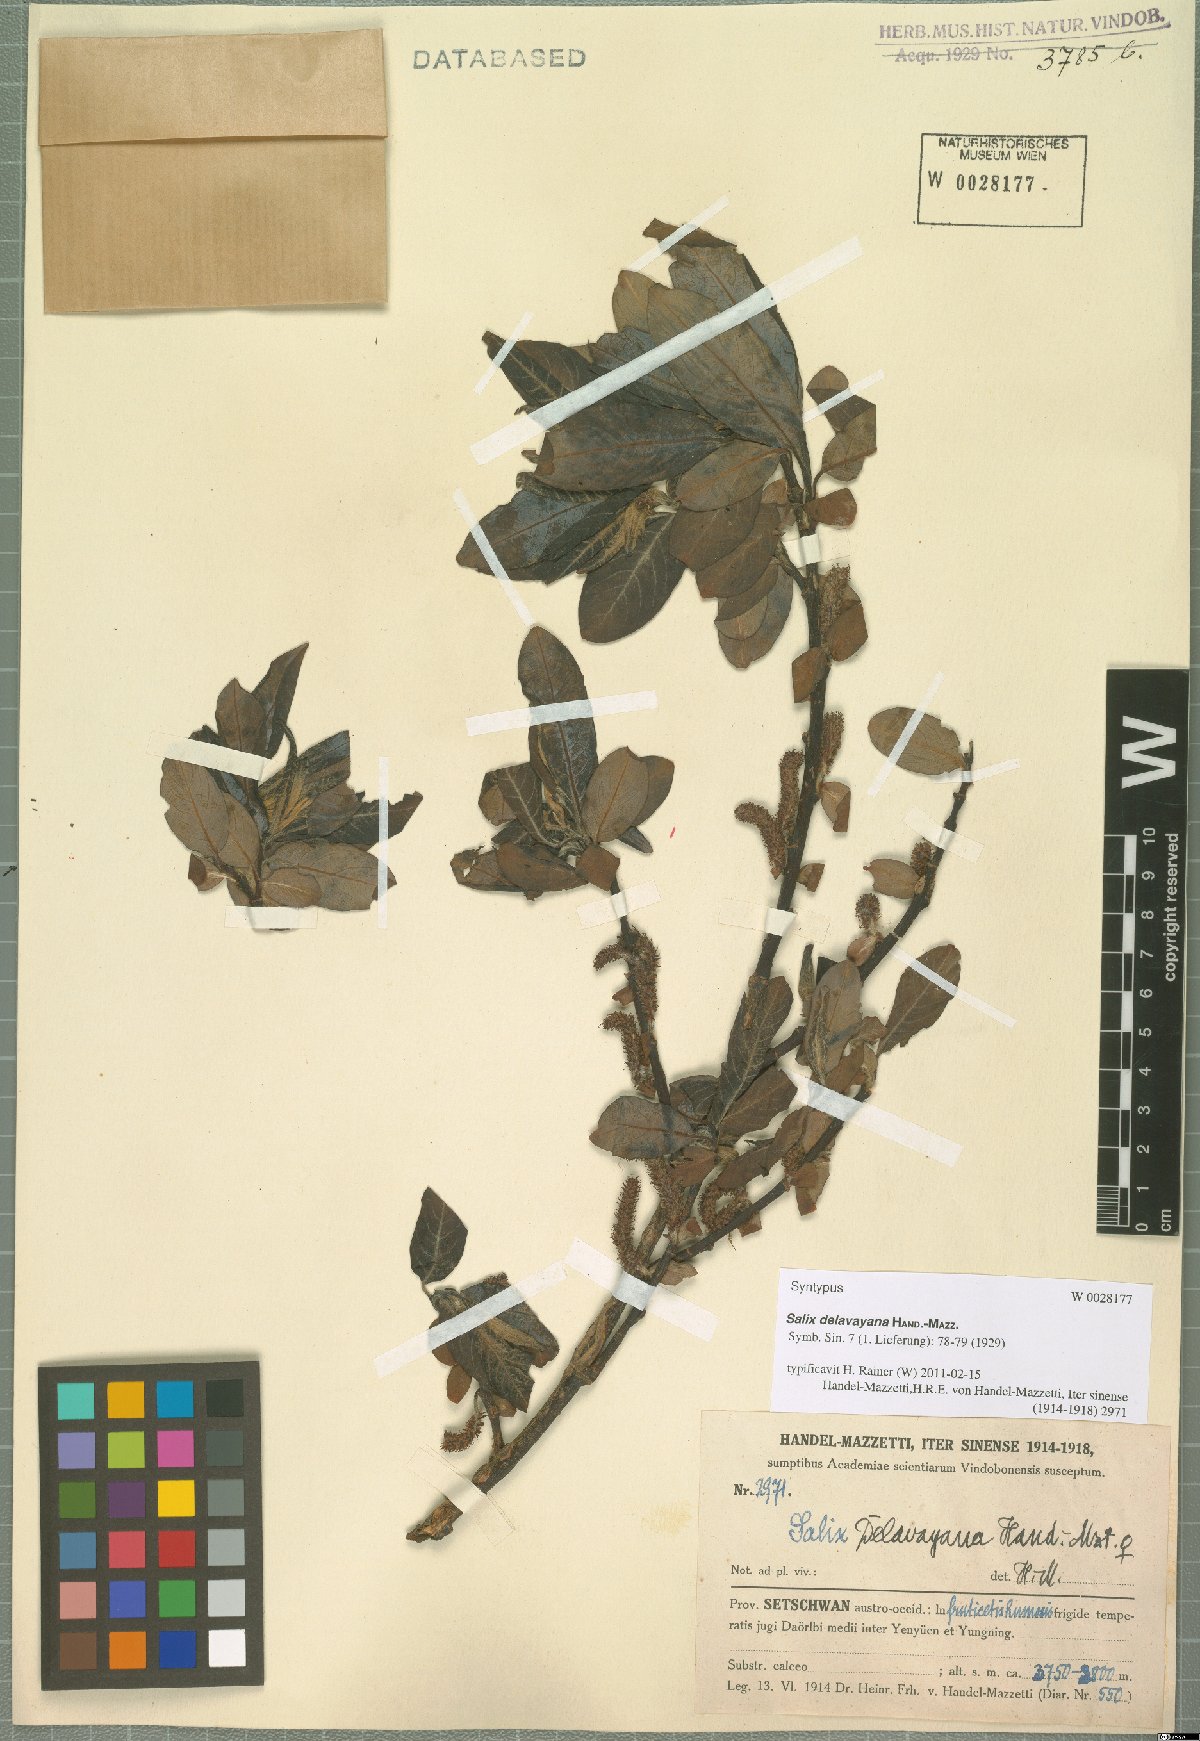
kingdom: Plantae
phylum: Tracheophyta
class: Magnoliopsida
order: Malpighiales
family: Salicaceae
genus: Salix
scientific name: Salix delavayana
